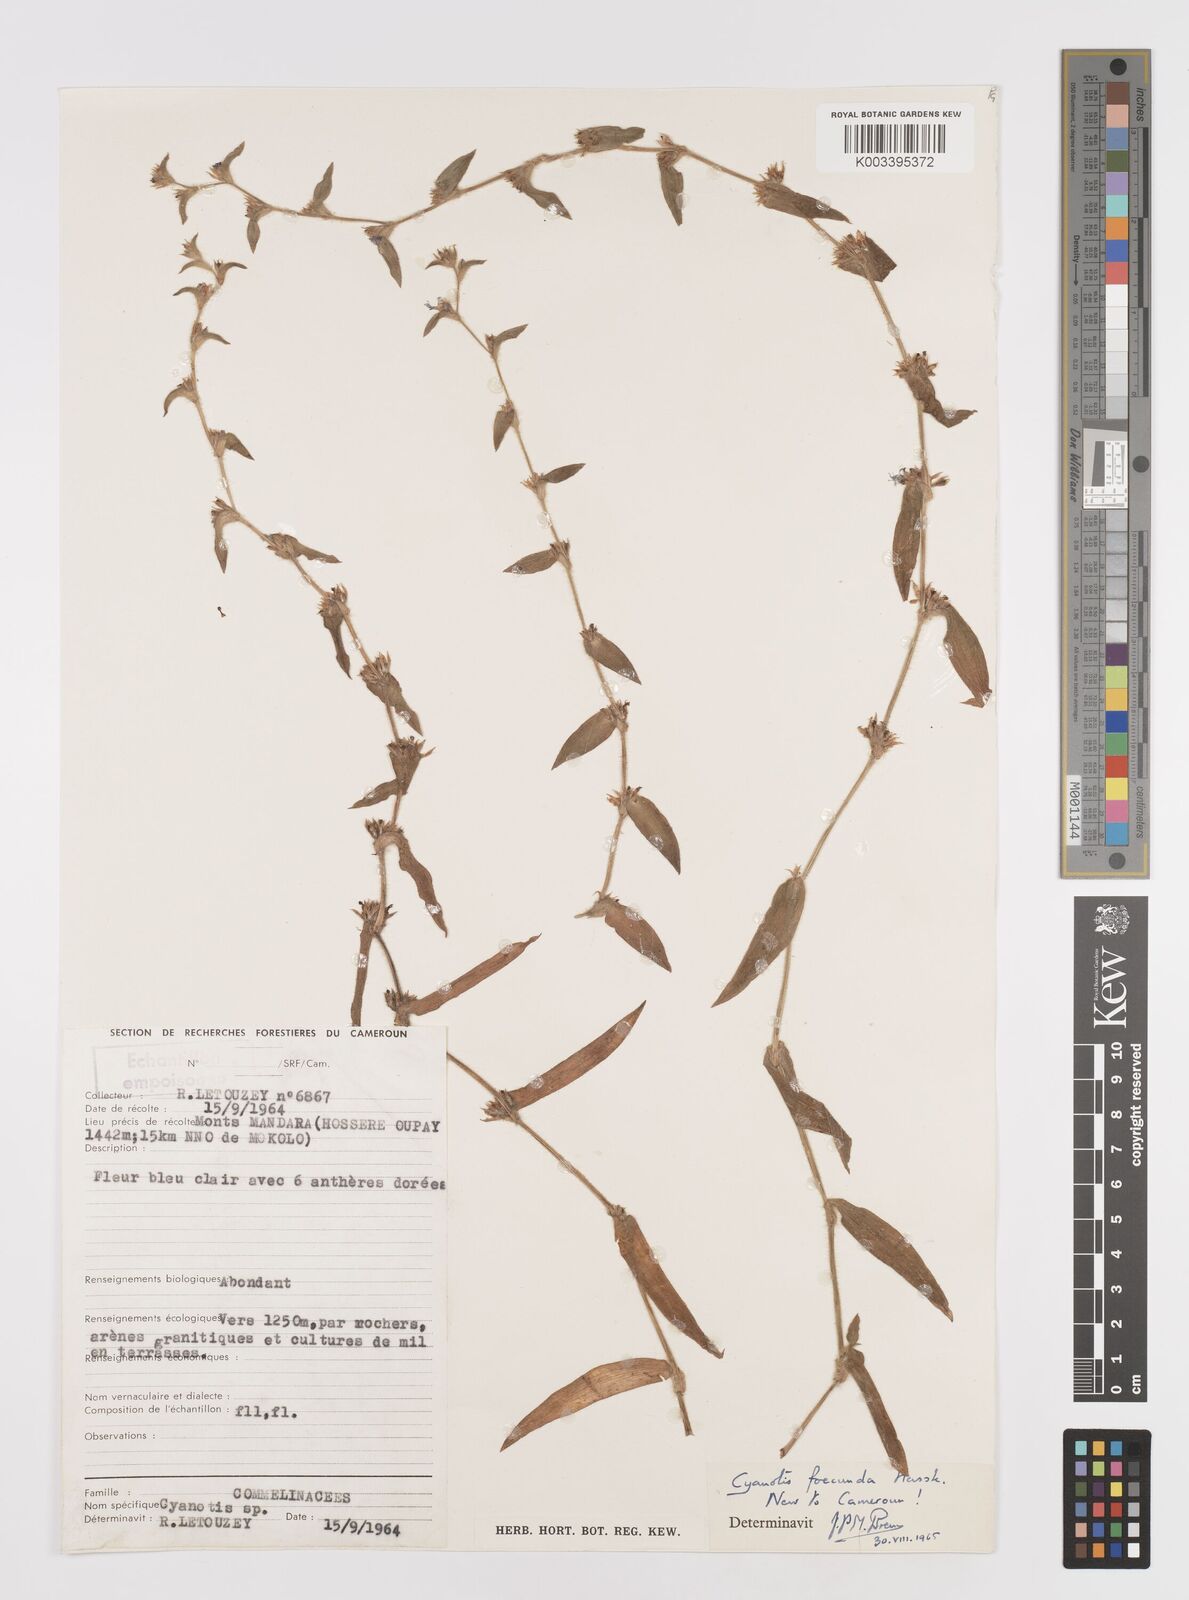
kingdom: Plantae
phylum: Tracheophyta
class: Liliopsida
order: Commelinales
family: Commelinaceae
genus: Cyanotis
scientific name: Cyanotis foecunda
